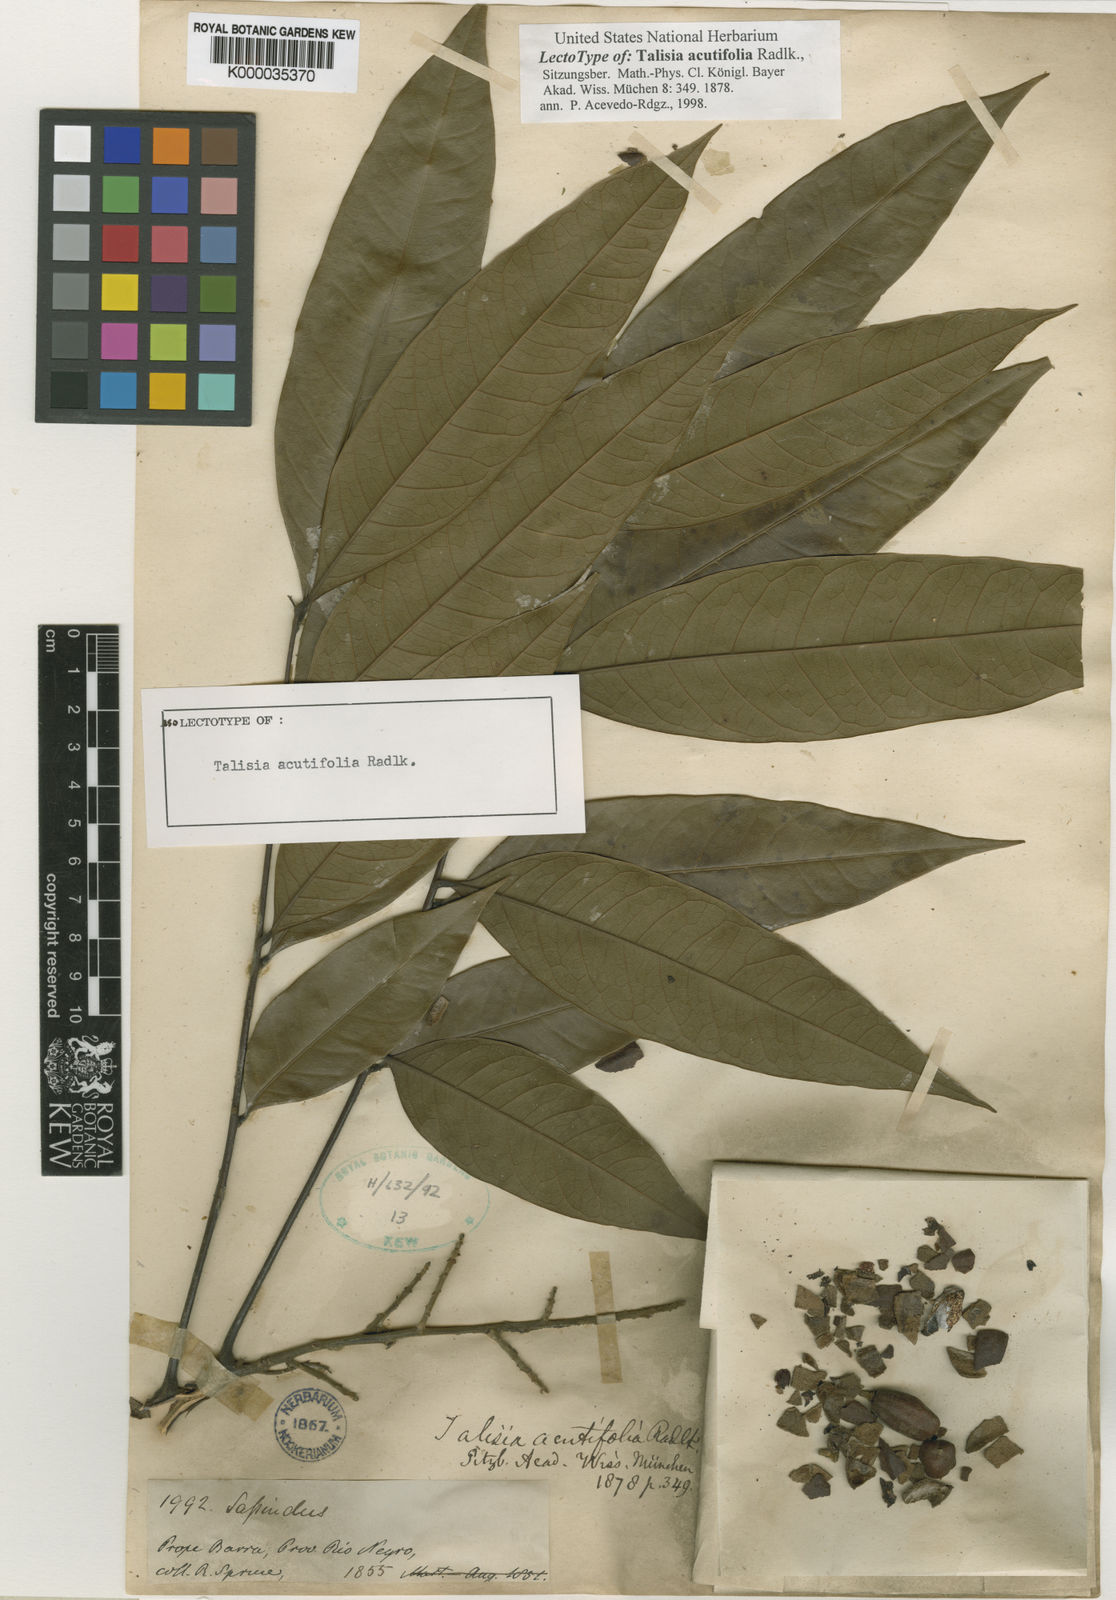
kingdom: Plantae
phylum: Tracheophyta
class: Magnoliopsida
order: Sapindales
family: Sapindaceae
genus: Talisia
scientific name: Talisia acutifolia
